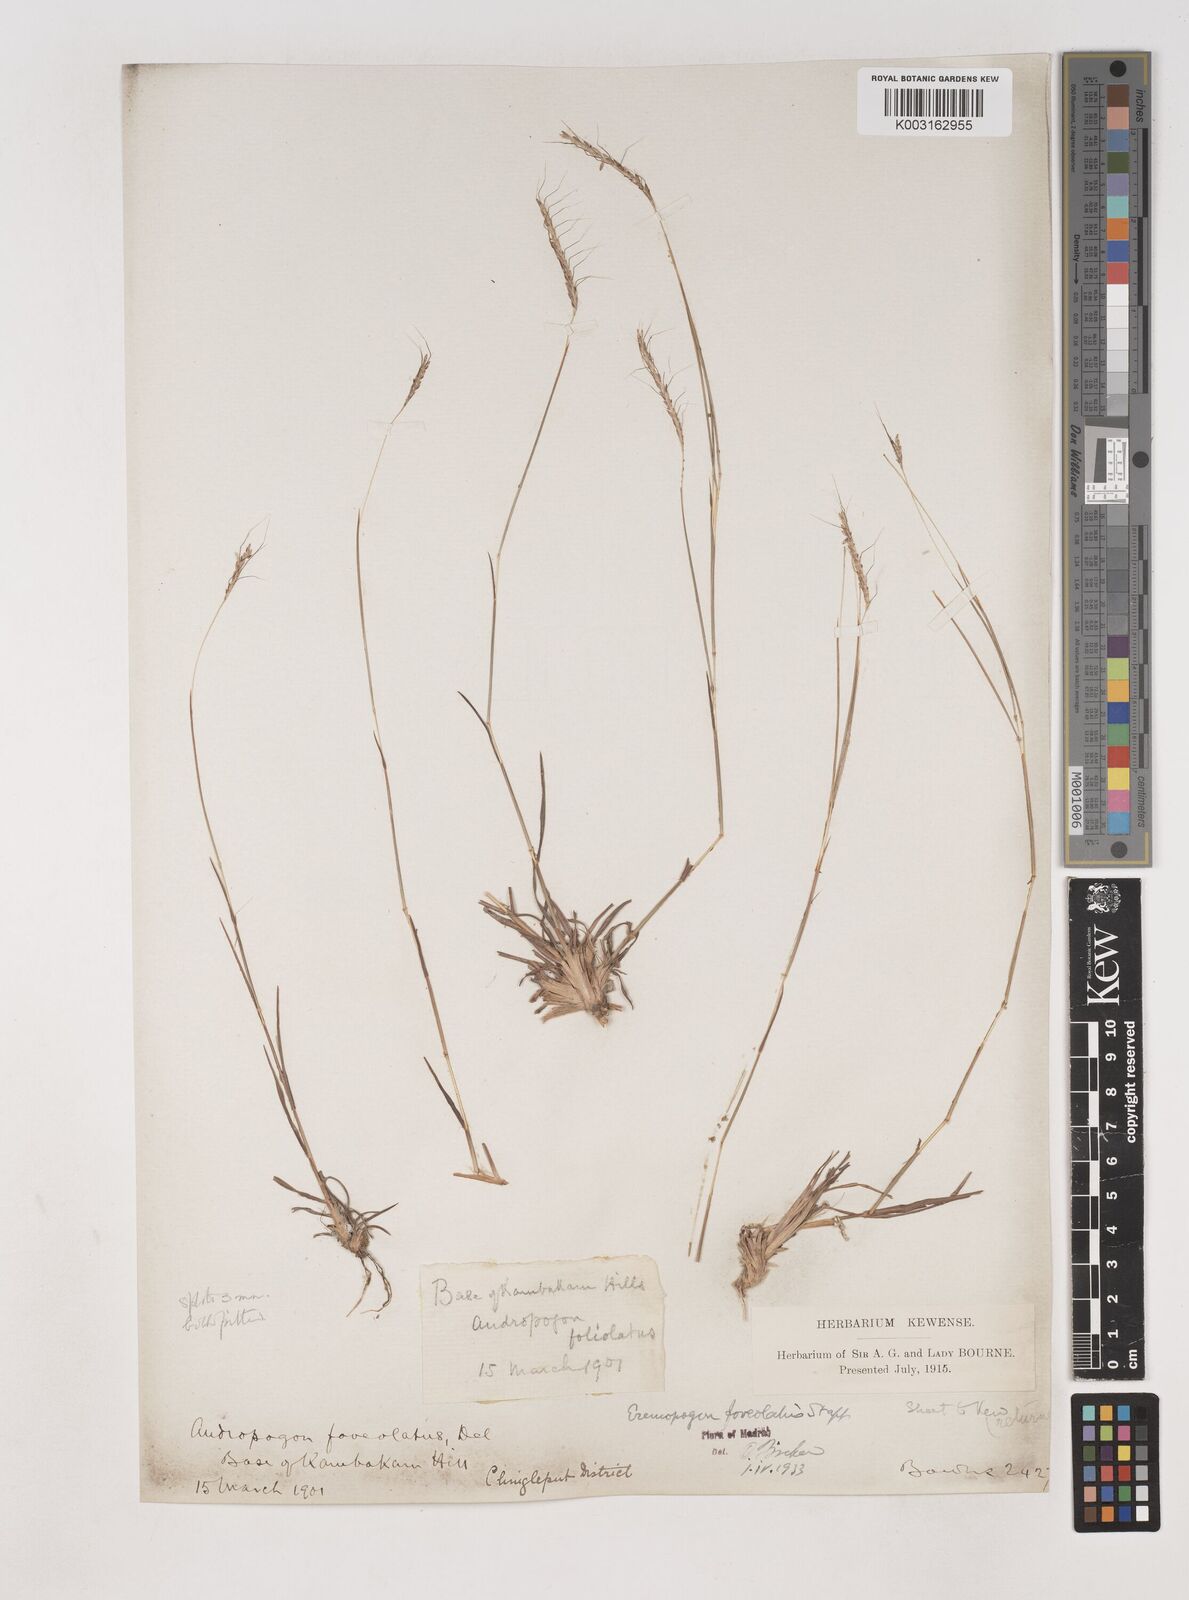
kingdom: Plantae
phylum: Tracheophyta
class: Liliopsida
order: Poales
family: Poaceae
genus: Dichanthium
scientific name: Dichanthium
